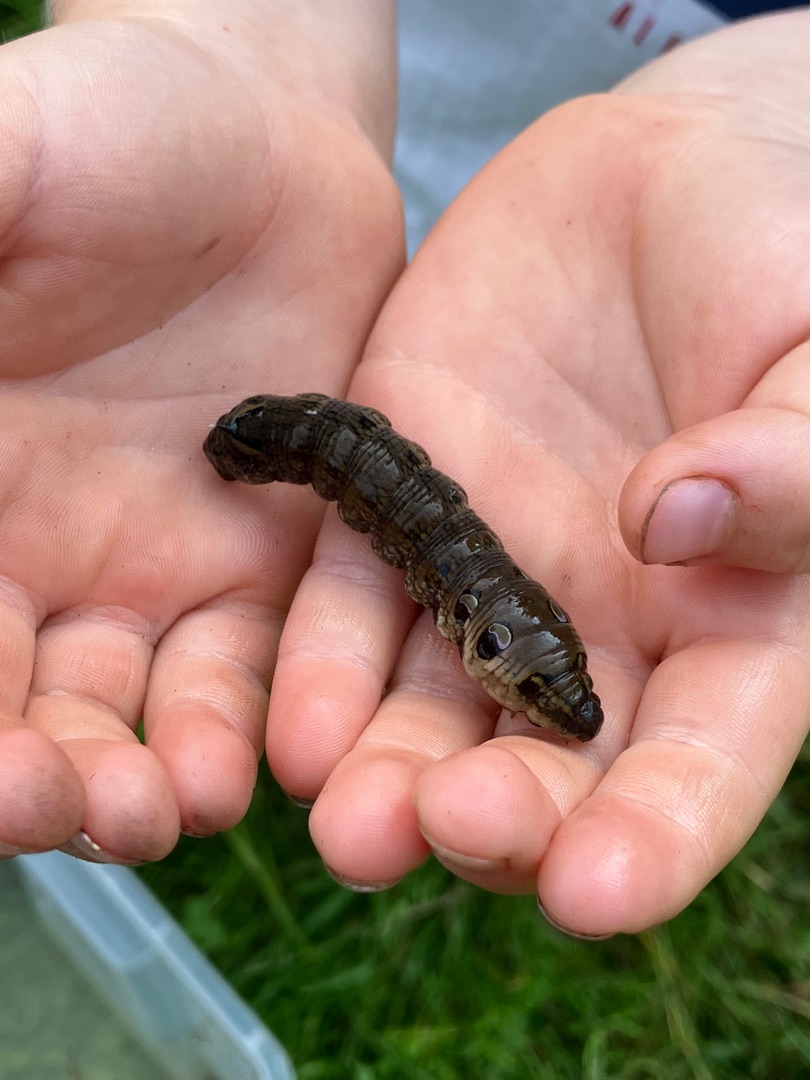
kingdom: Animalia
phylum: Arthropoda
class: Insecta
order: Lepidoptera
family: Sphingidae
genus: Deilephila
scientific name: Deilephila elpenor
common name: Dueurtsværmer
